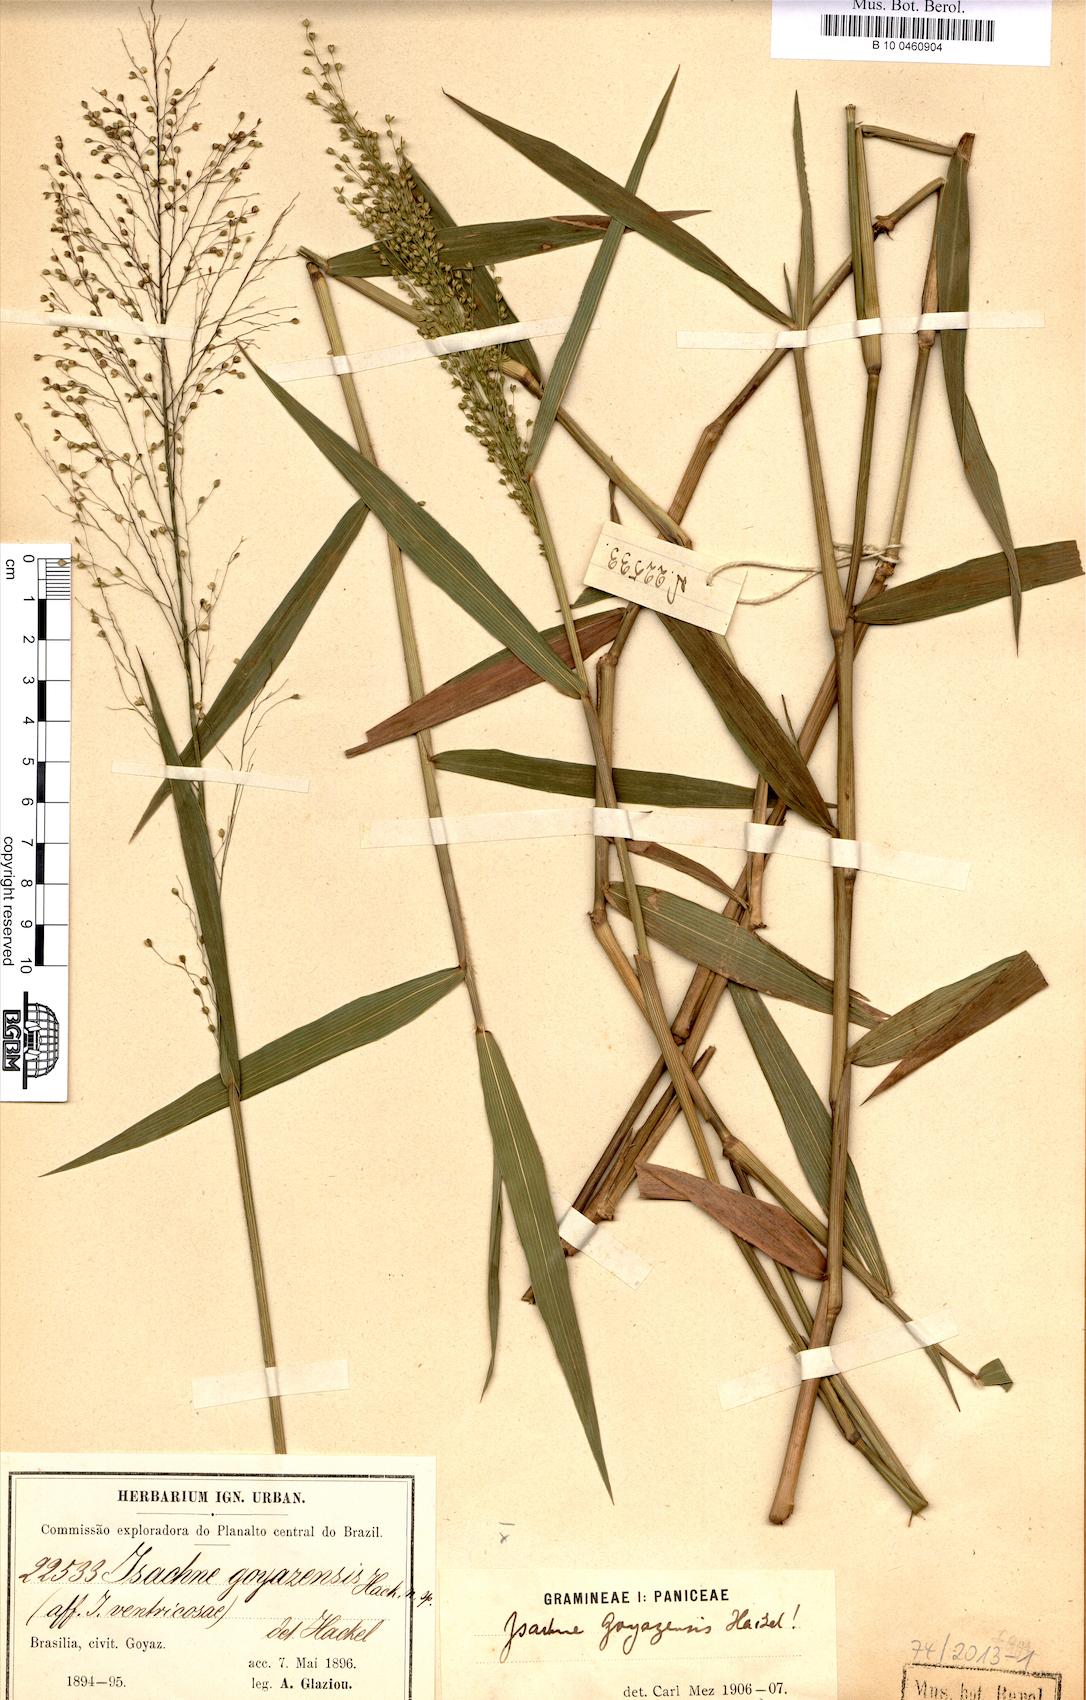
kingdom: Plantae
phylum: Tracheophyta
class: Liliopsida
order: Poales
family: Poaceae
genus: Isachne
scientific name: Isachne goiasensis
